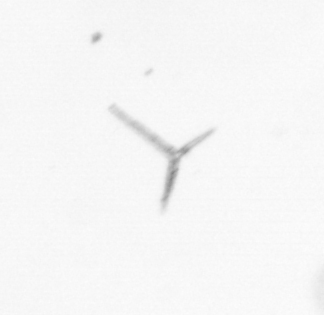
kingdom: Chromista
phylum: Ochrophyta
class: Bacillariophyceae
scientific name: Bacillariophyceae
